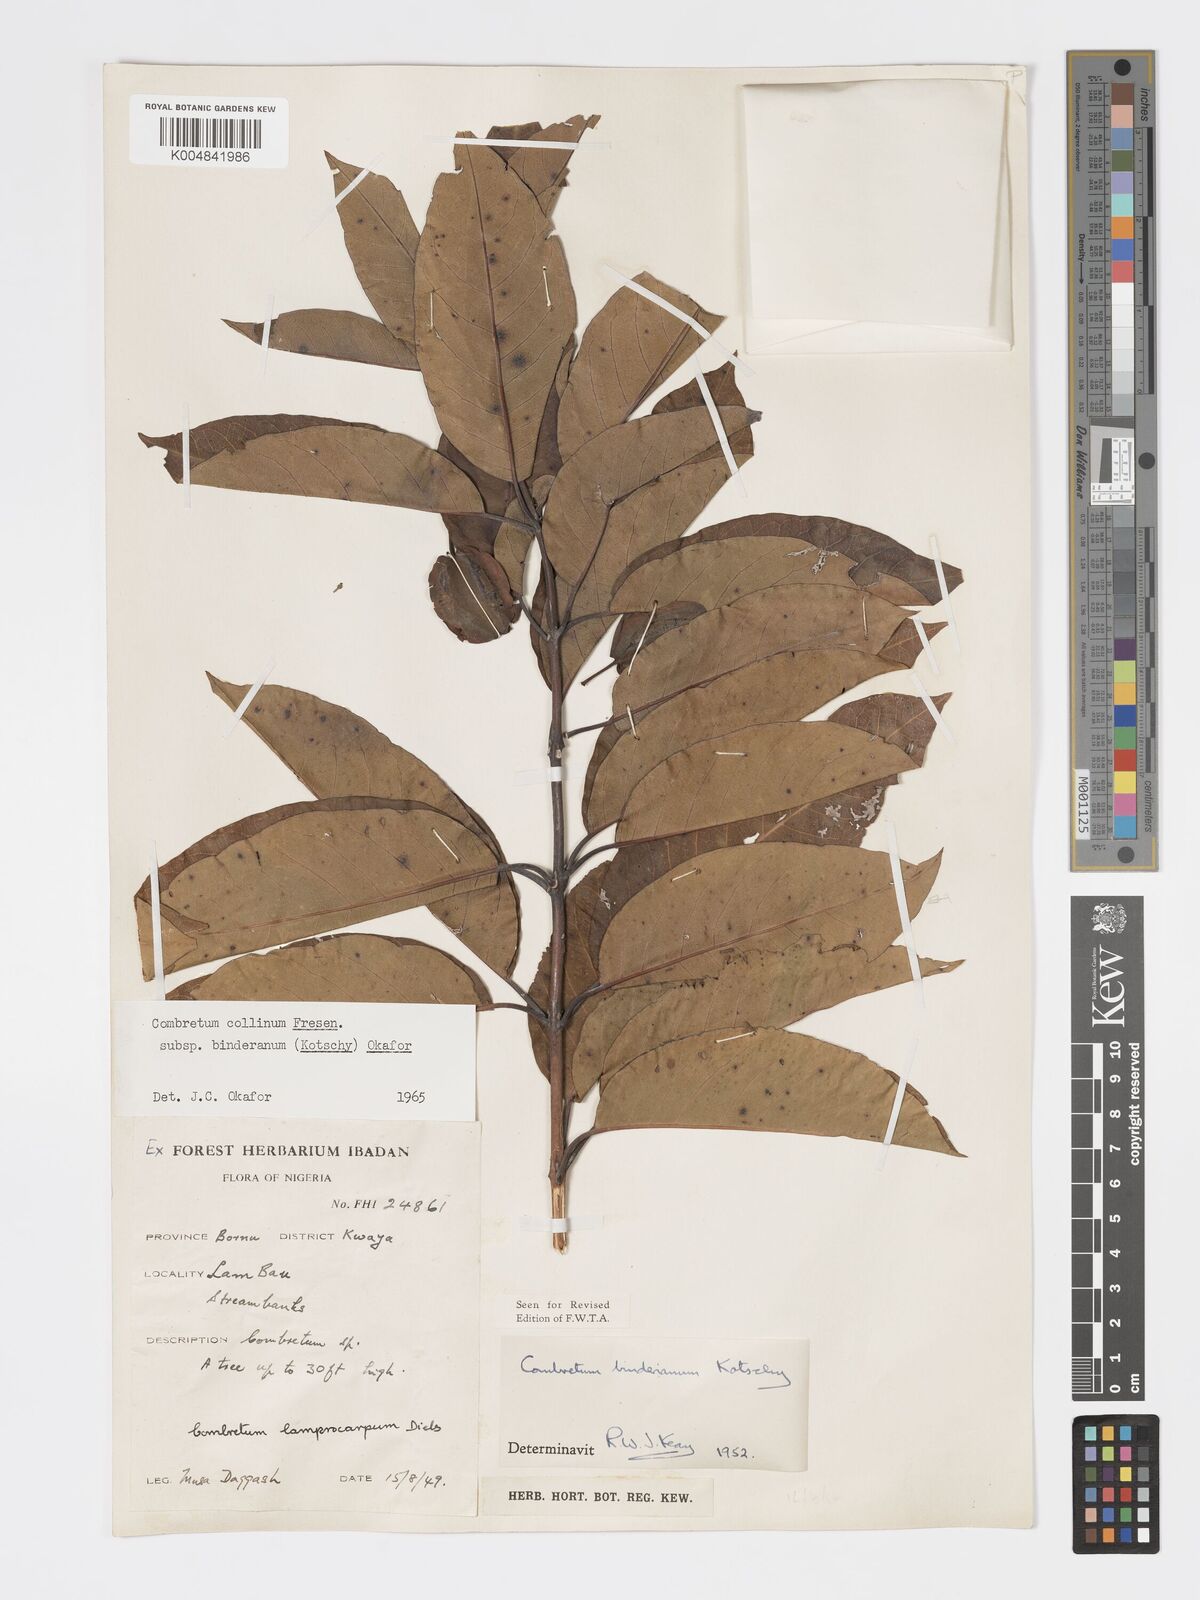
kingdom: Plantae
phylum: Tracheophyta
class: Magnoliopsida
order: Myrtales
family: Combretaceae
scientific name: Combretaceae
